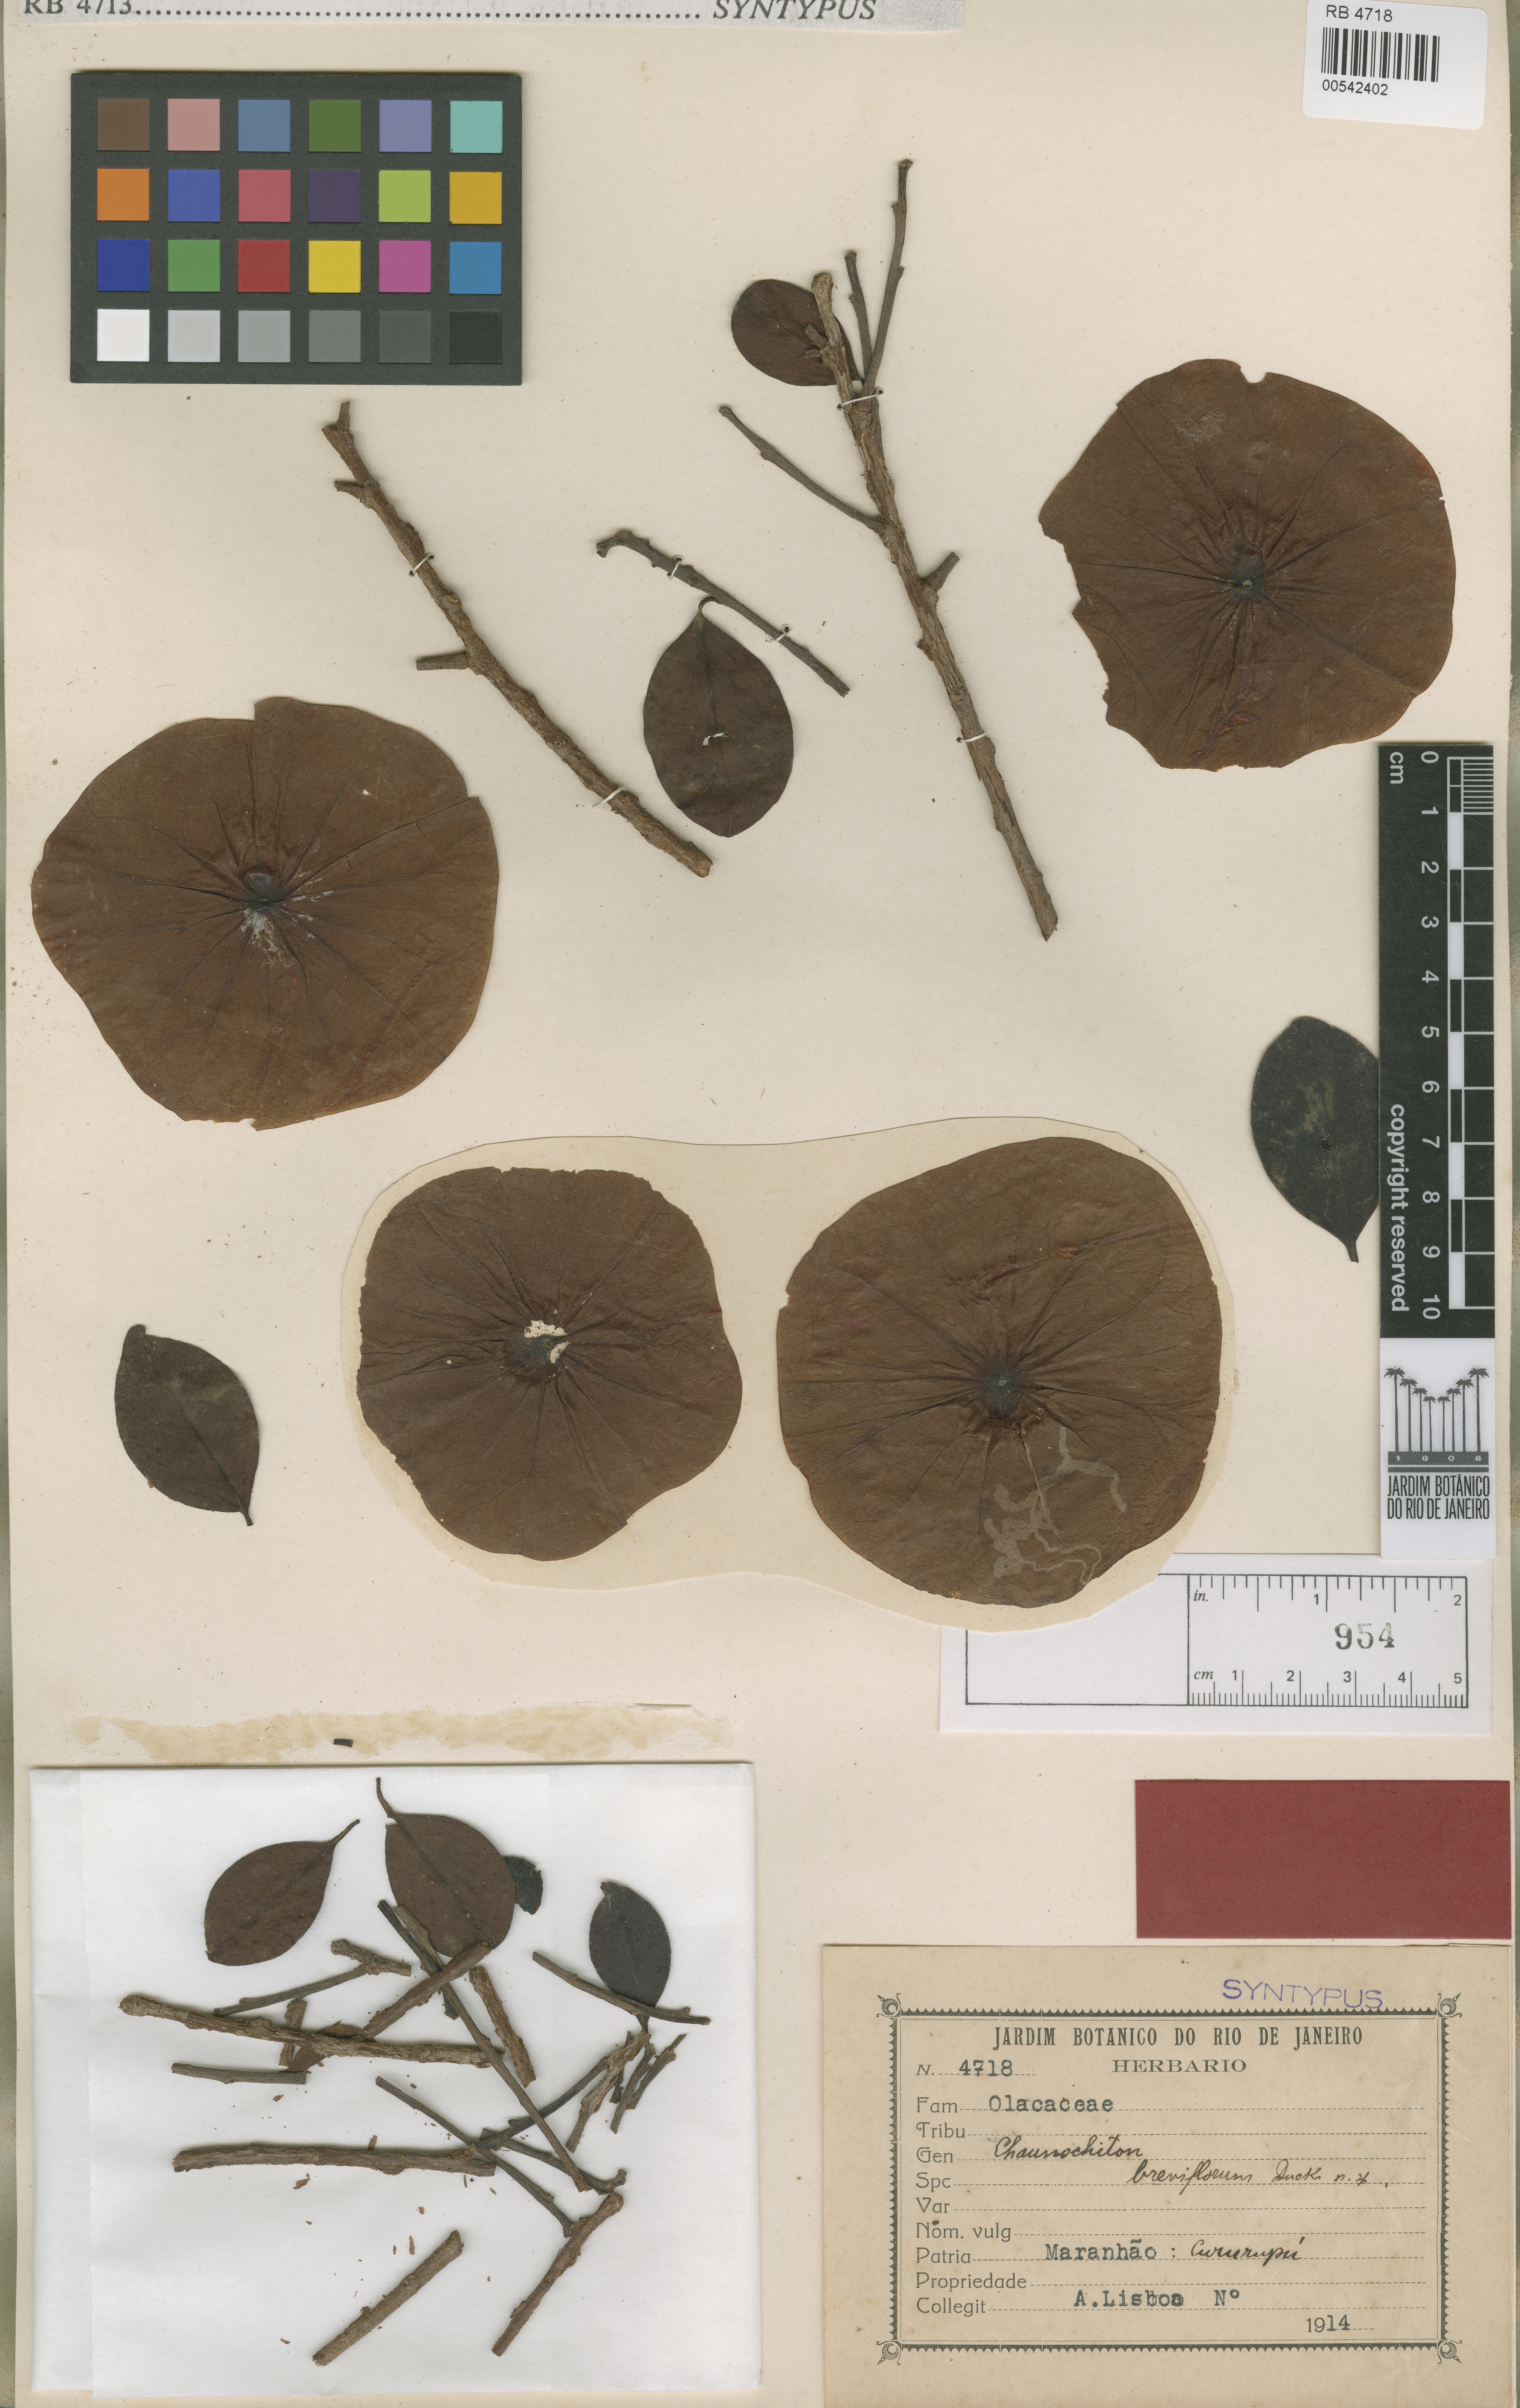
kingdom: Plantae
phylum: Tracheophyta
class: Magnoliopsida
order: Santalales
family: Aptandraceae
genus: Chaunochiton
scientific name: Chaunochiton kappleri
